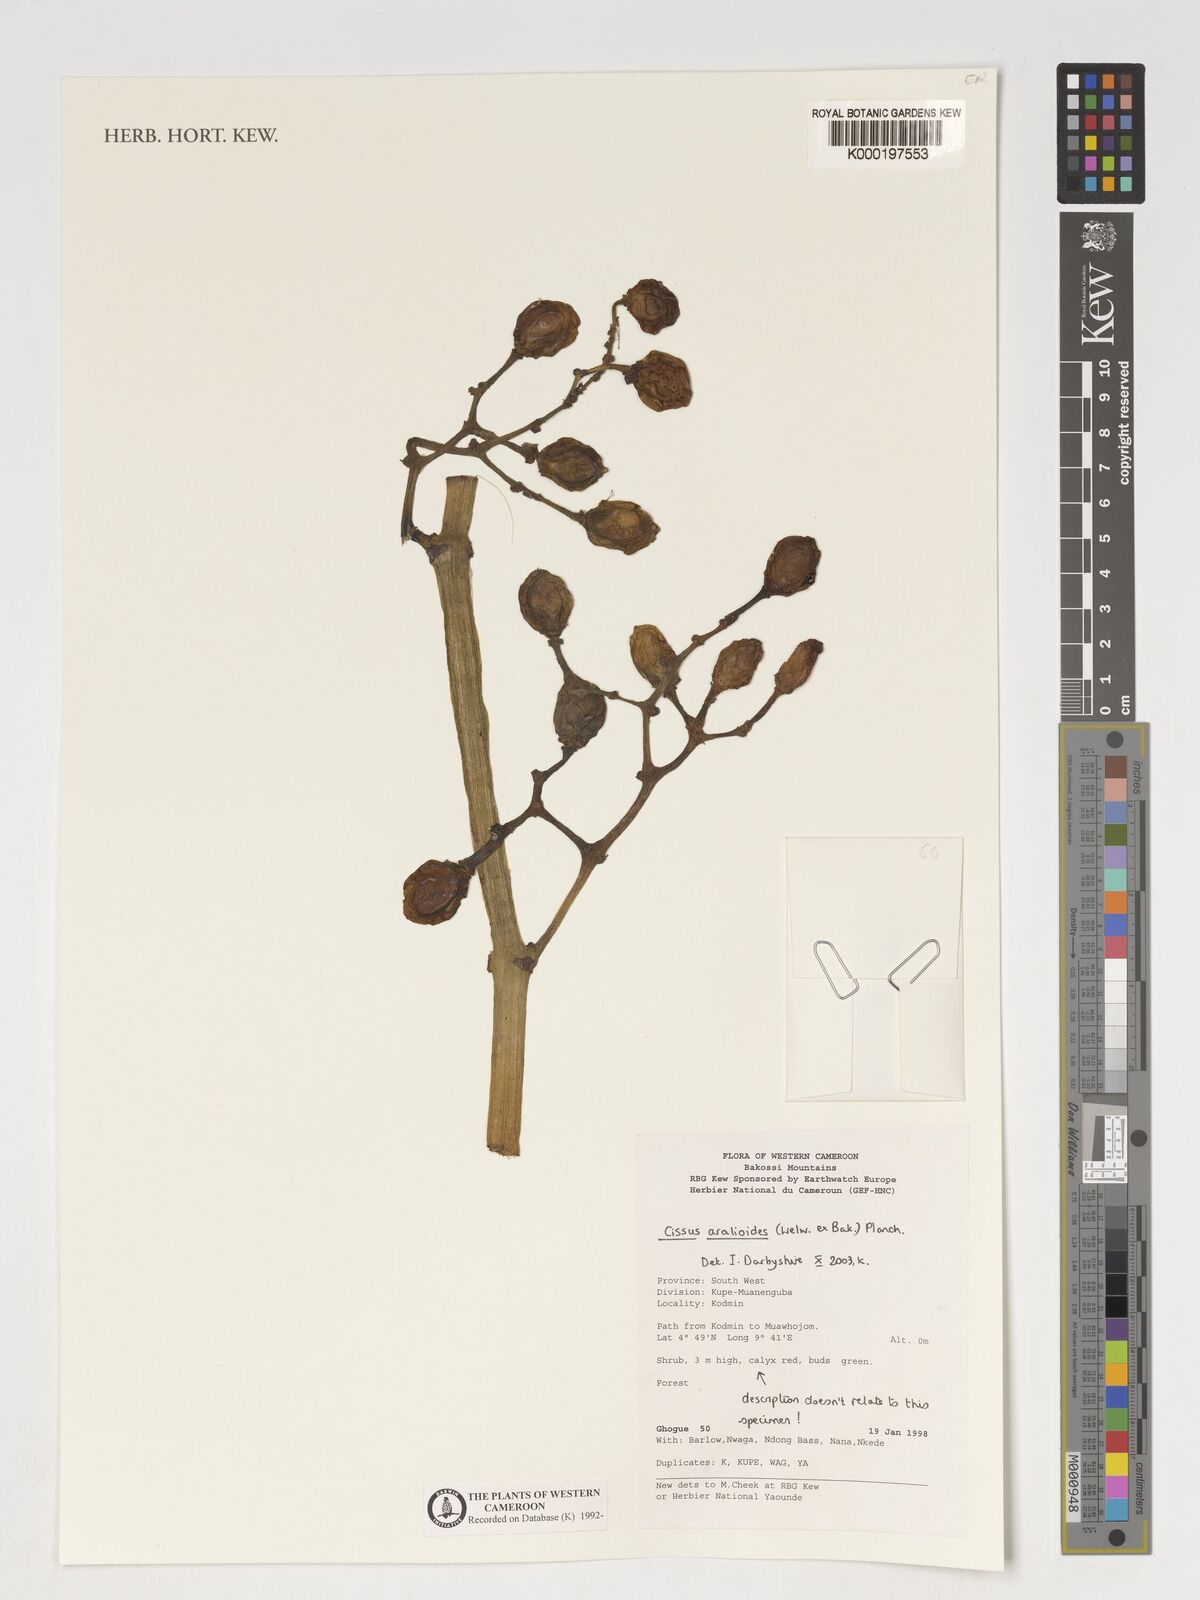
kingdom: Plantae
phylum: Tracheophyta
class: Magnoliopsida
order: Vitales
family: Vitaceae
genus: Cissus
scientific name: Cissus aralioides
